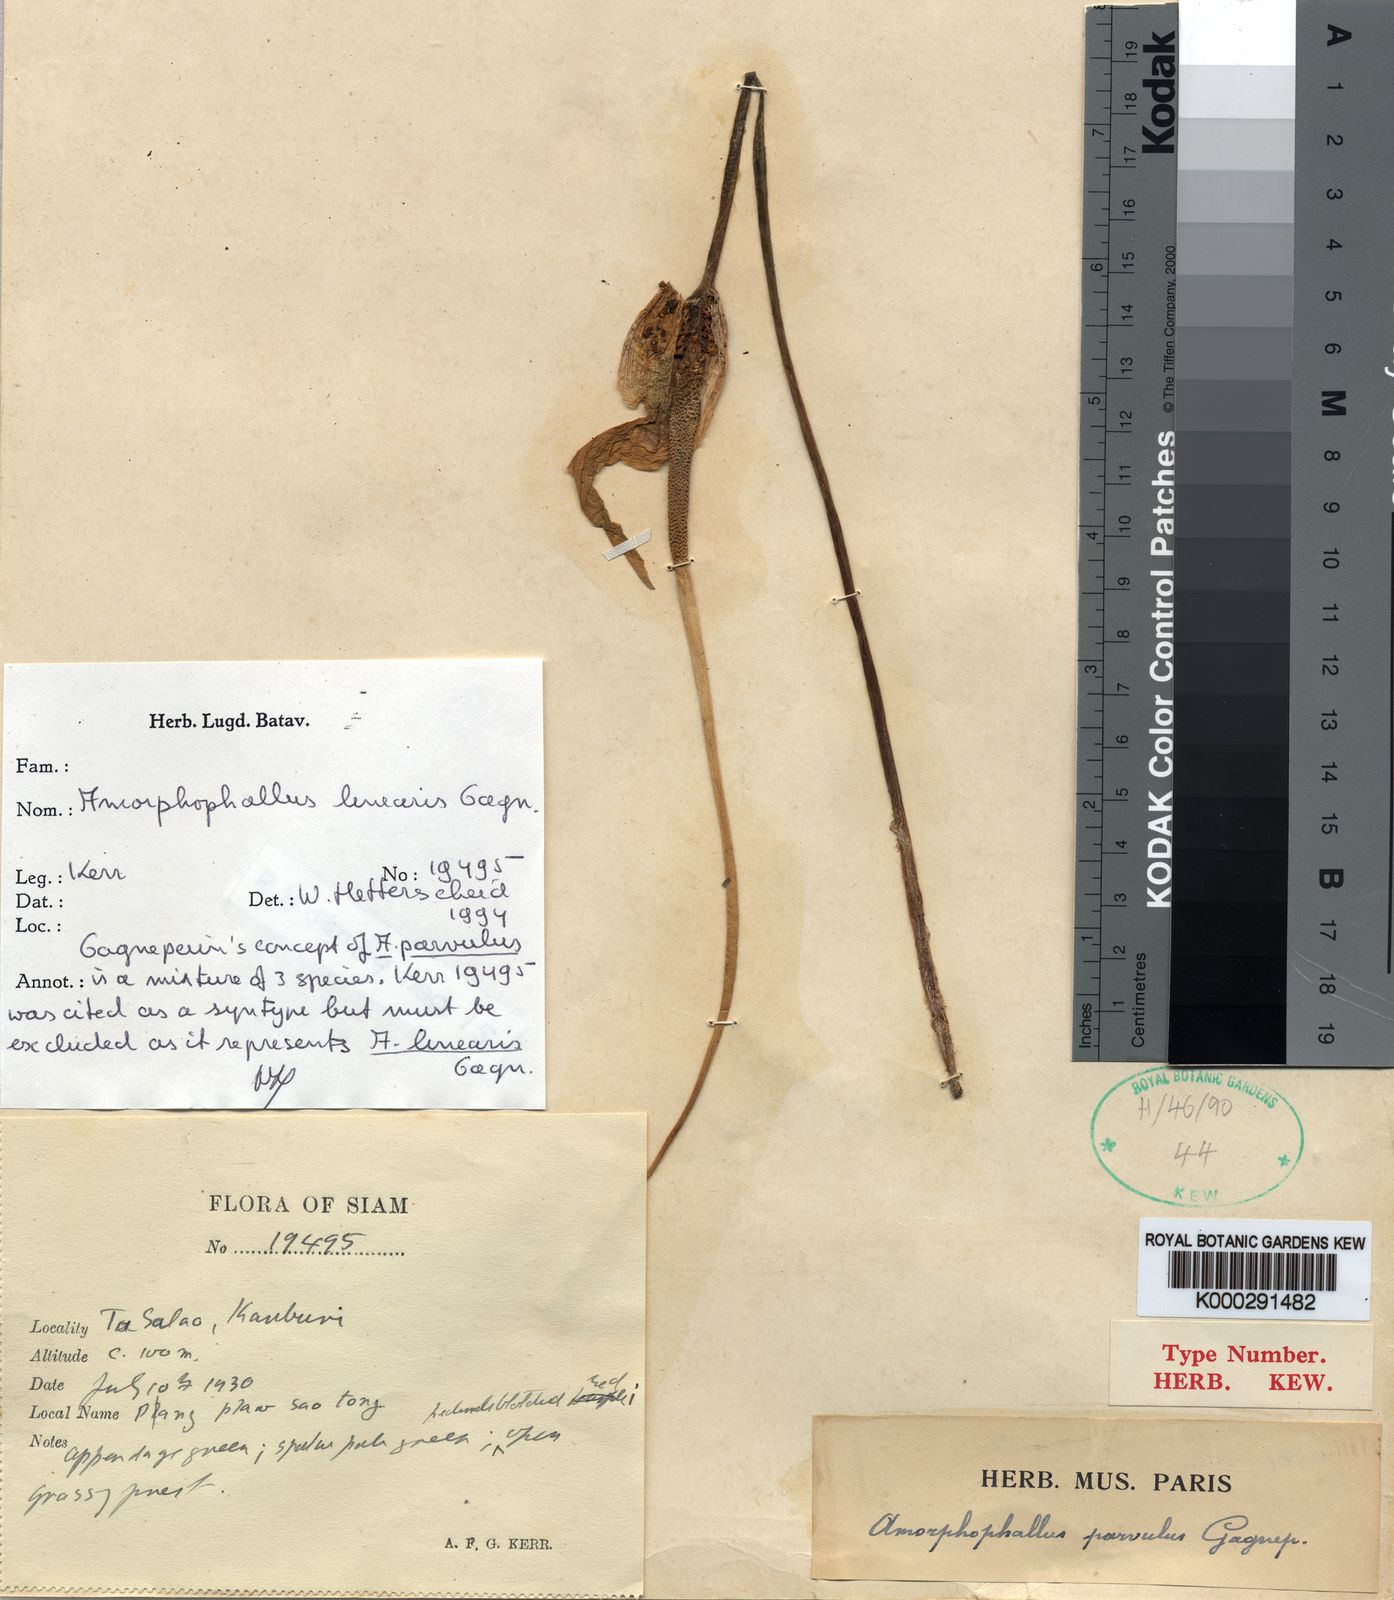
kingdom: Plantae
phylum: Tracheophyta
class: Liliopsida
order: Alismatales
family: Araceae
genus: Amorphophallus
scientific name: Amorphophallus linearis
